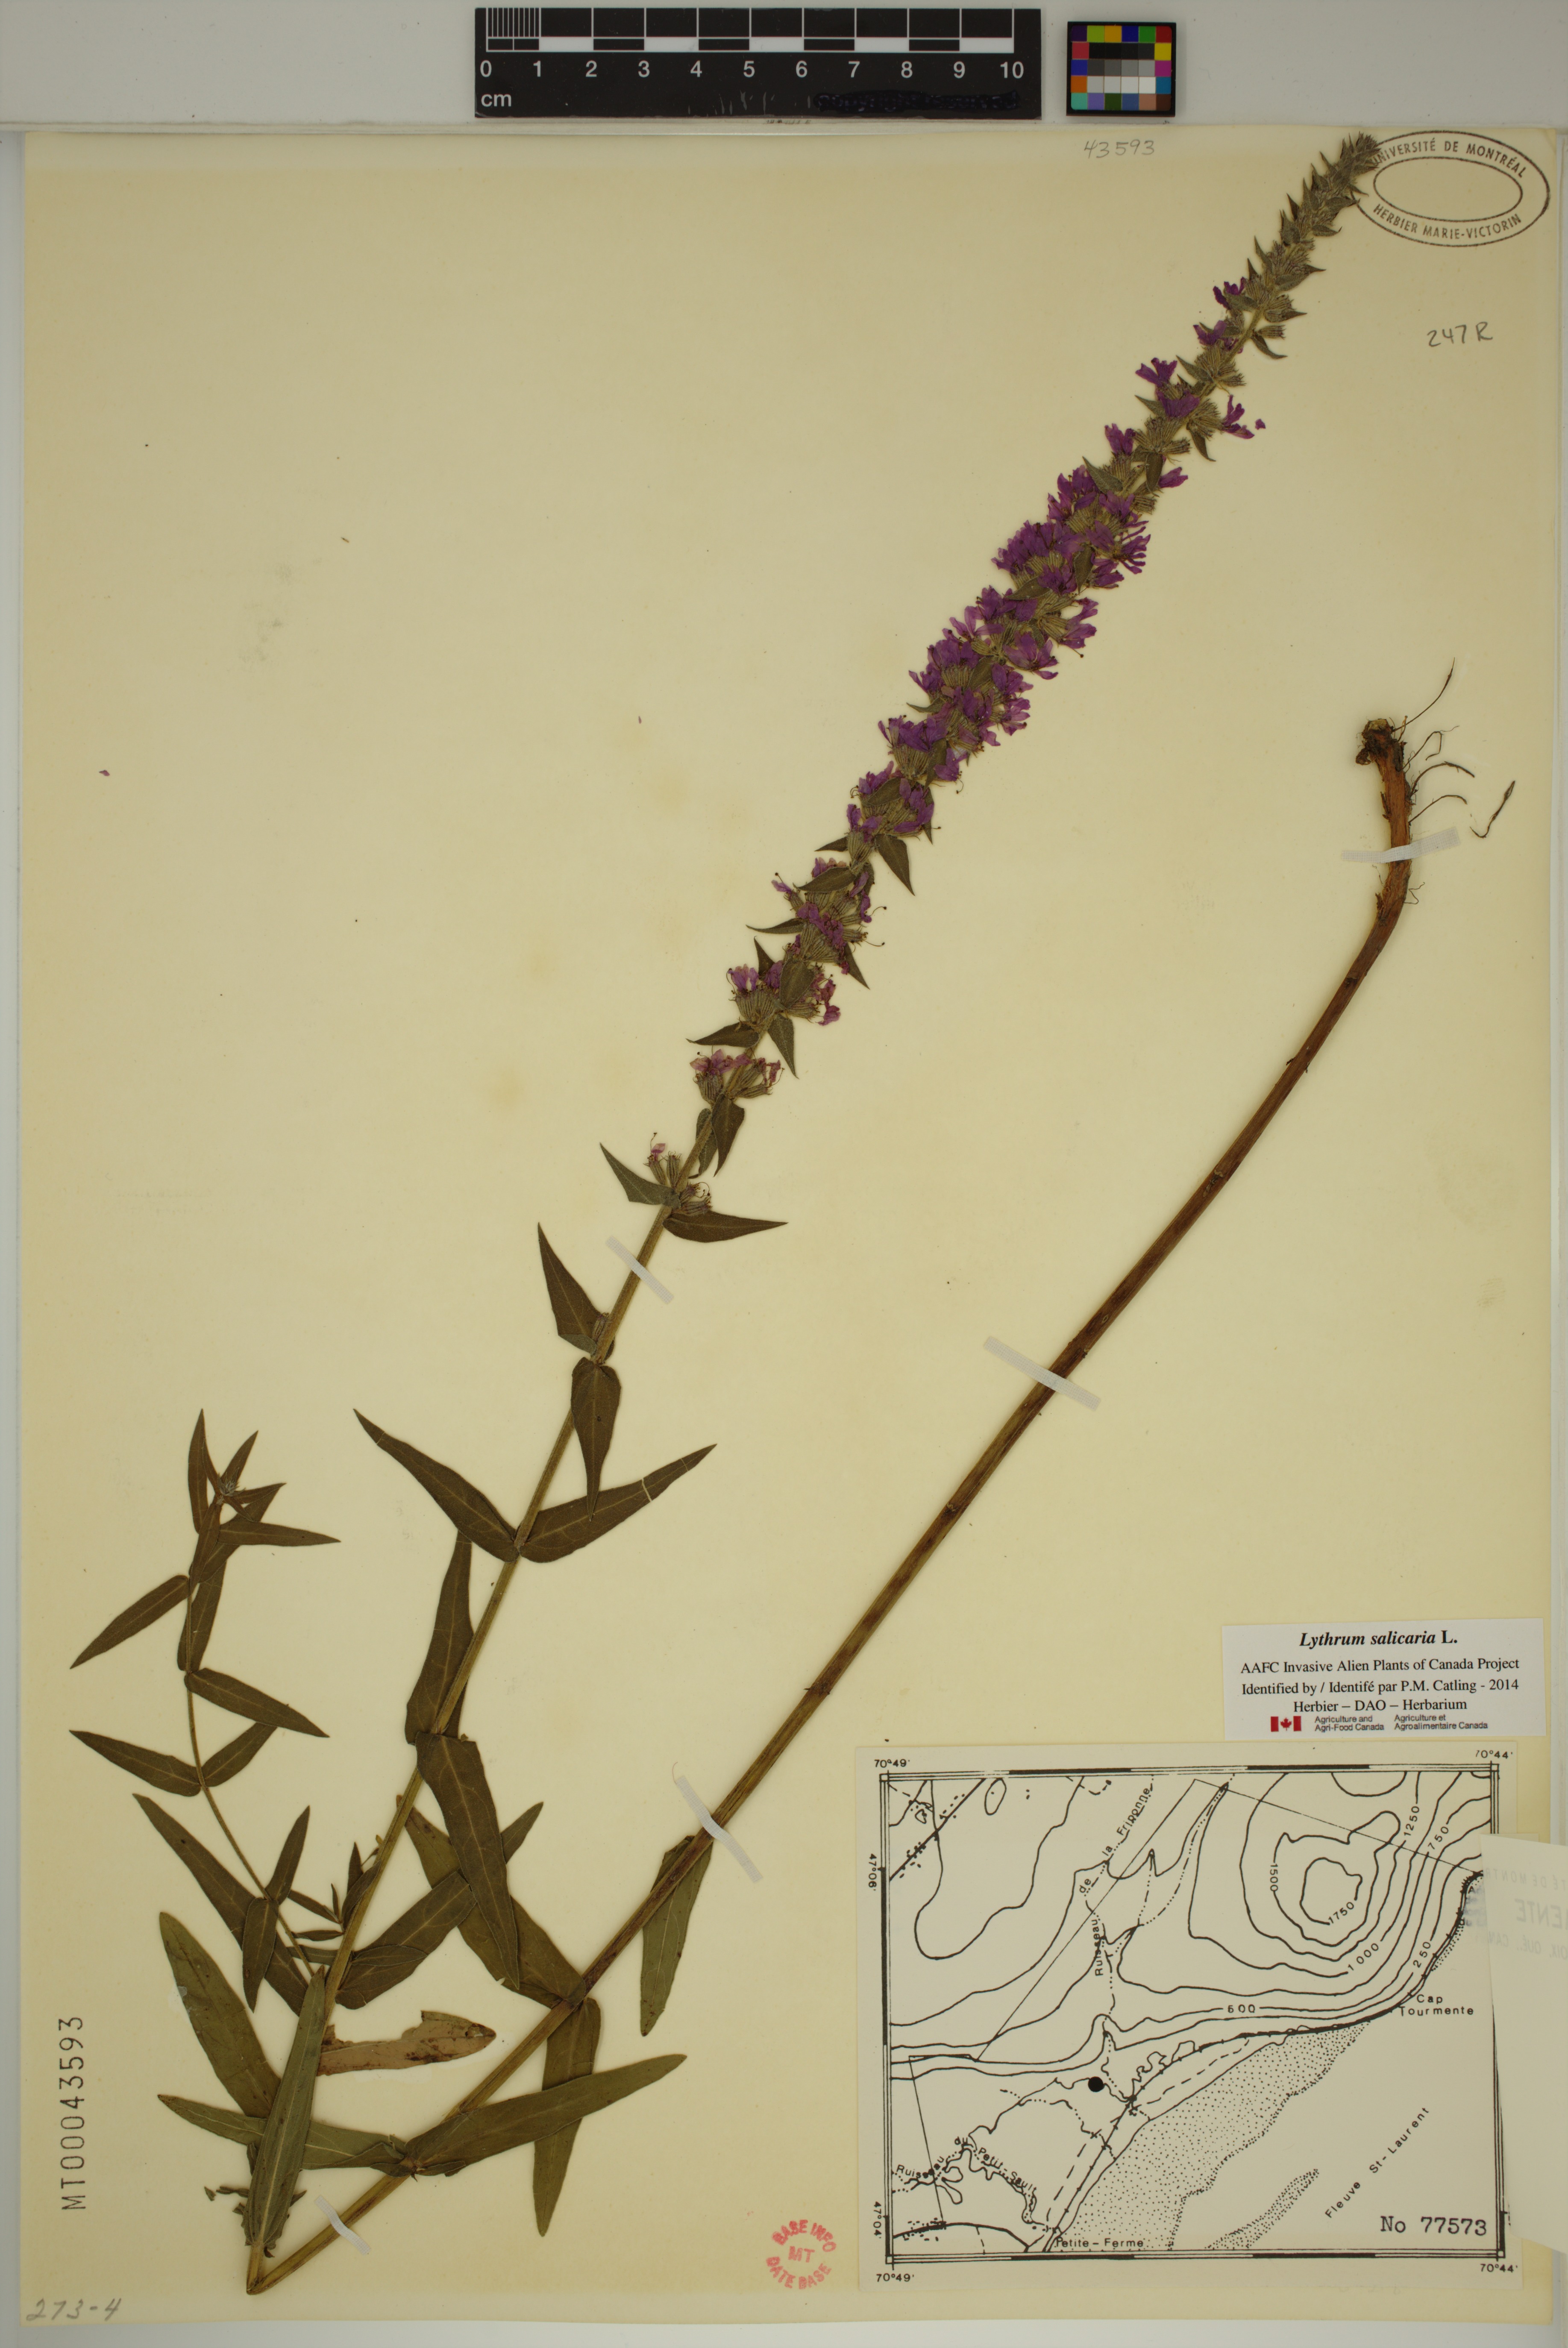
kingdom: Plantae
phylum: Tracheophyta
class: Magnoliopsida
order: Myrtales
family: Lythraceae
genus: Lythrum
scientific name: Lythrum salicaria
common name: Purple loosestrife
